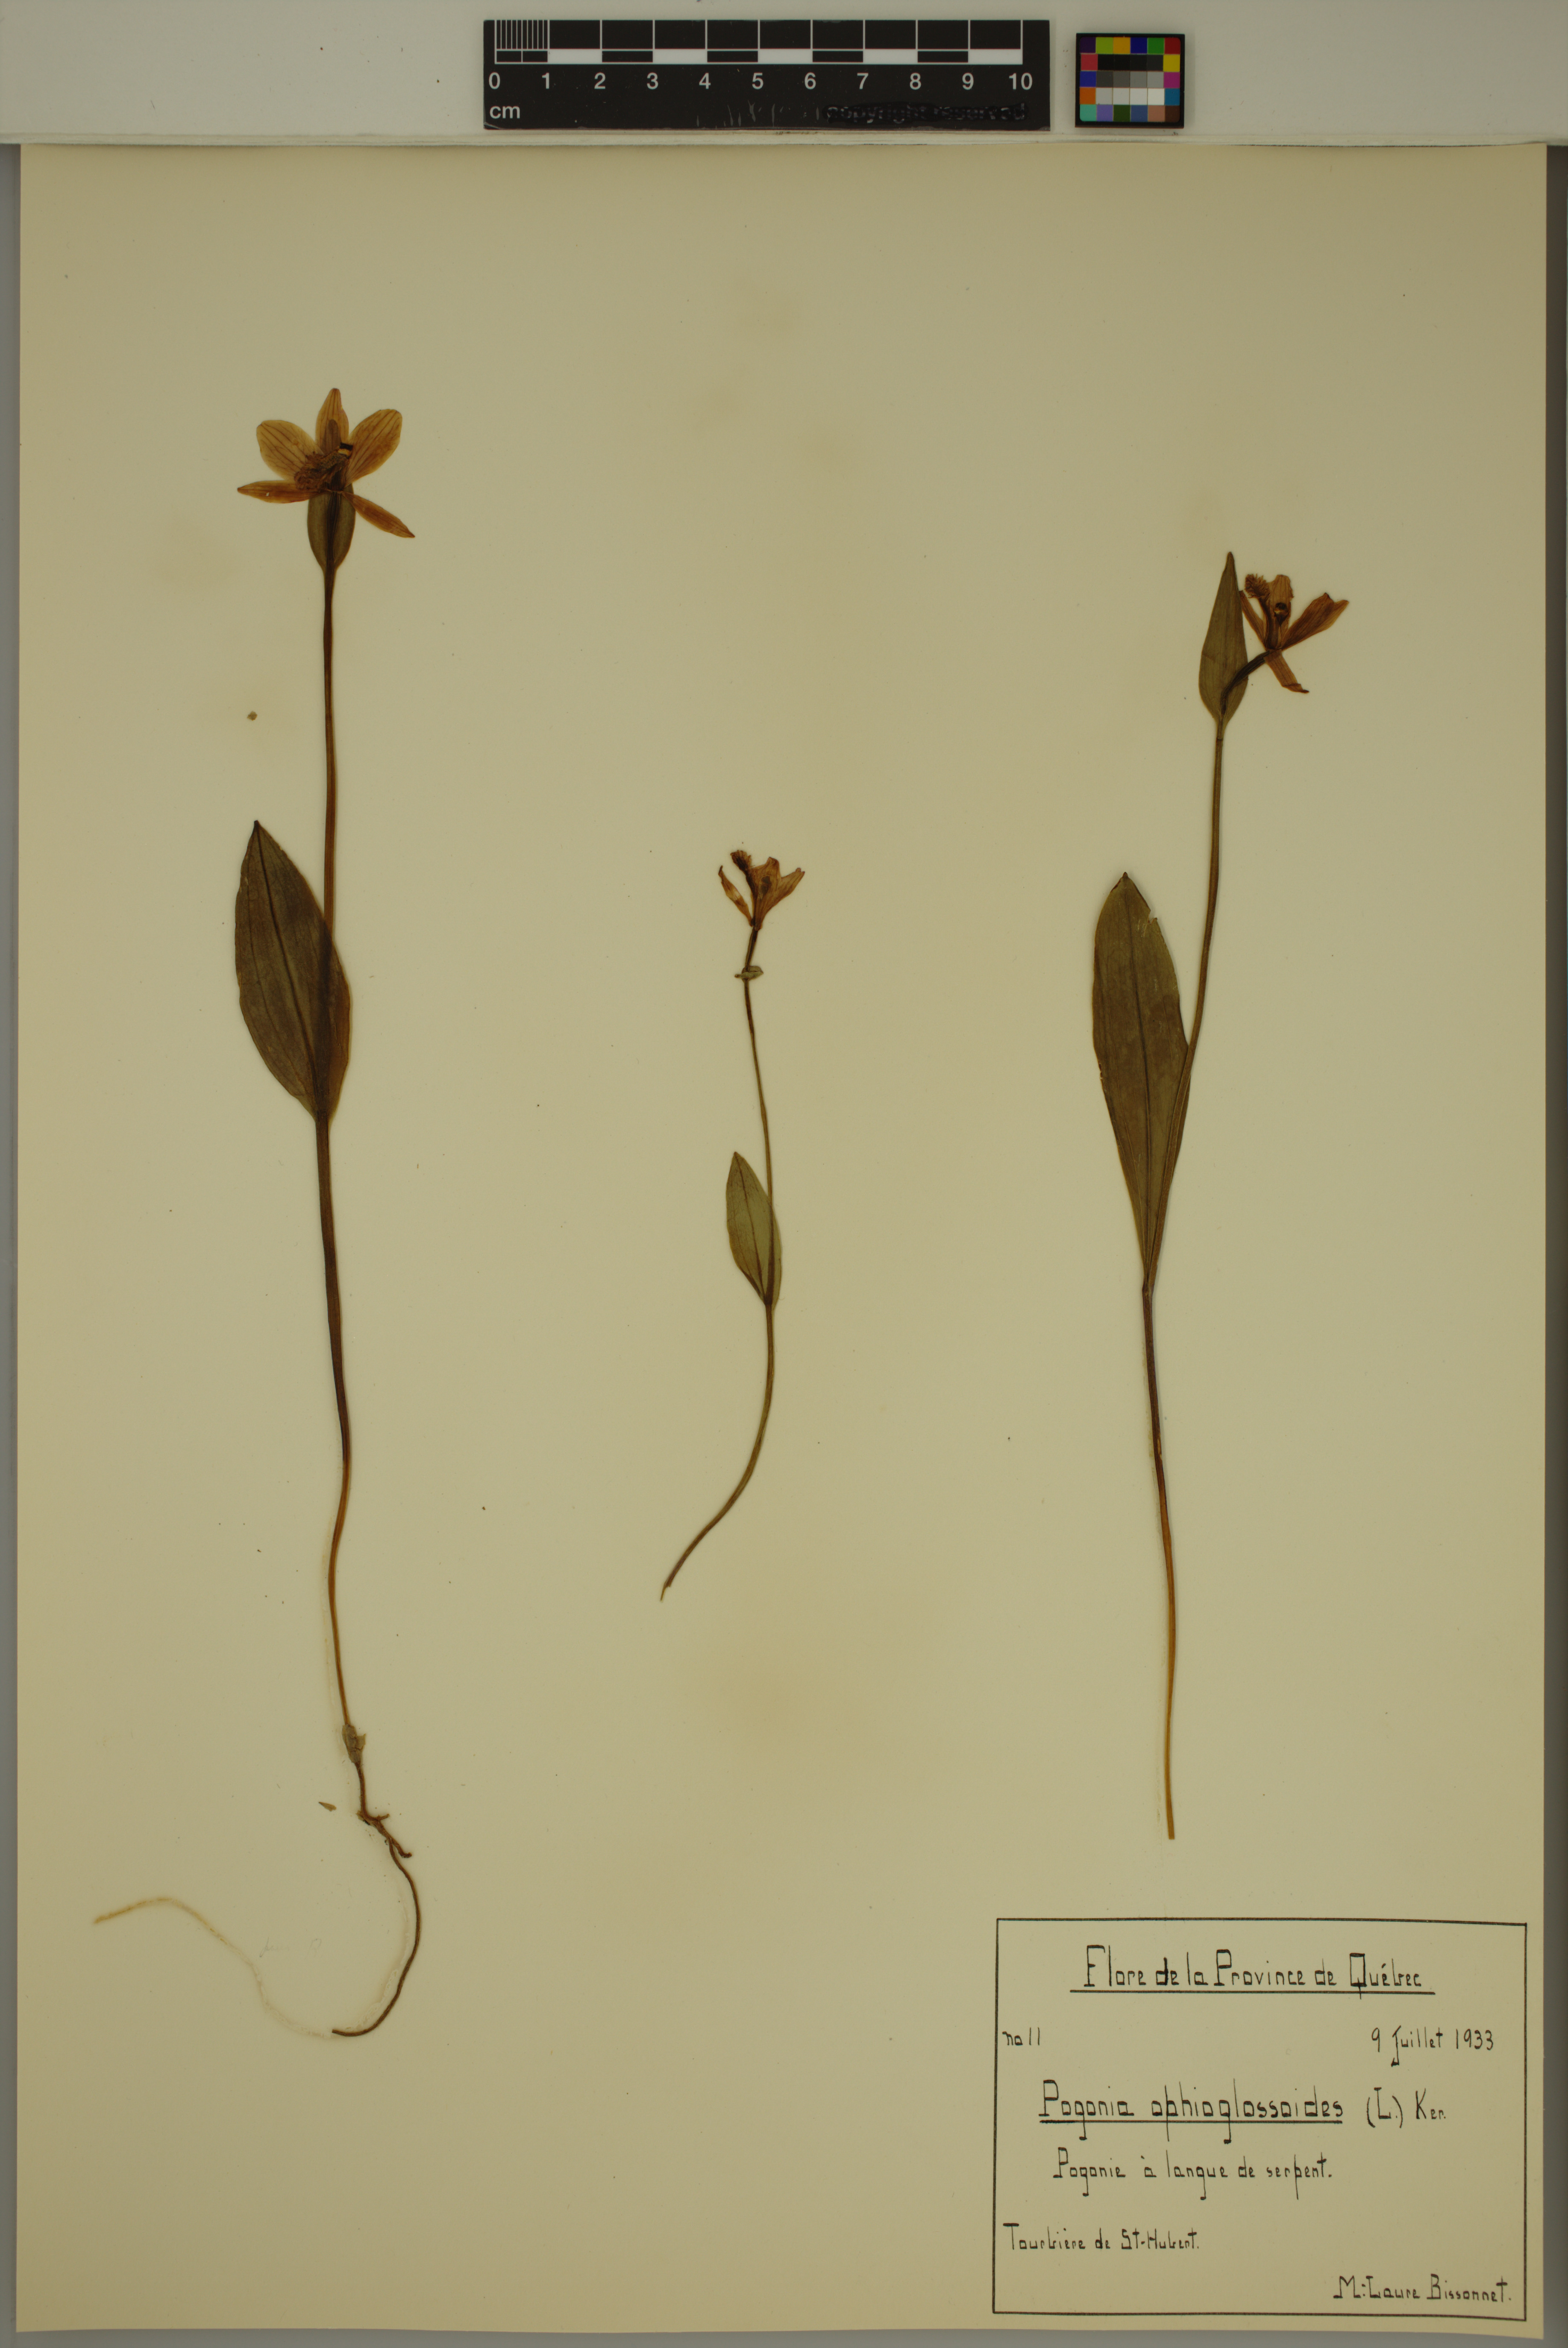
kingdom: Plantae
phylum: Tracheophyta
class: Liliopsida
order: Asparagales
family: Orchidaceae
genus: Pogonia
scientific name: Pogonia ophioglossoides
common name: Rose pogonia
